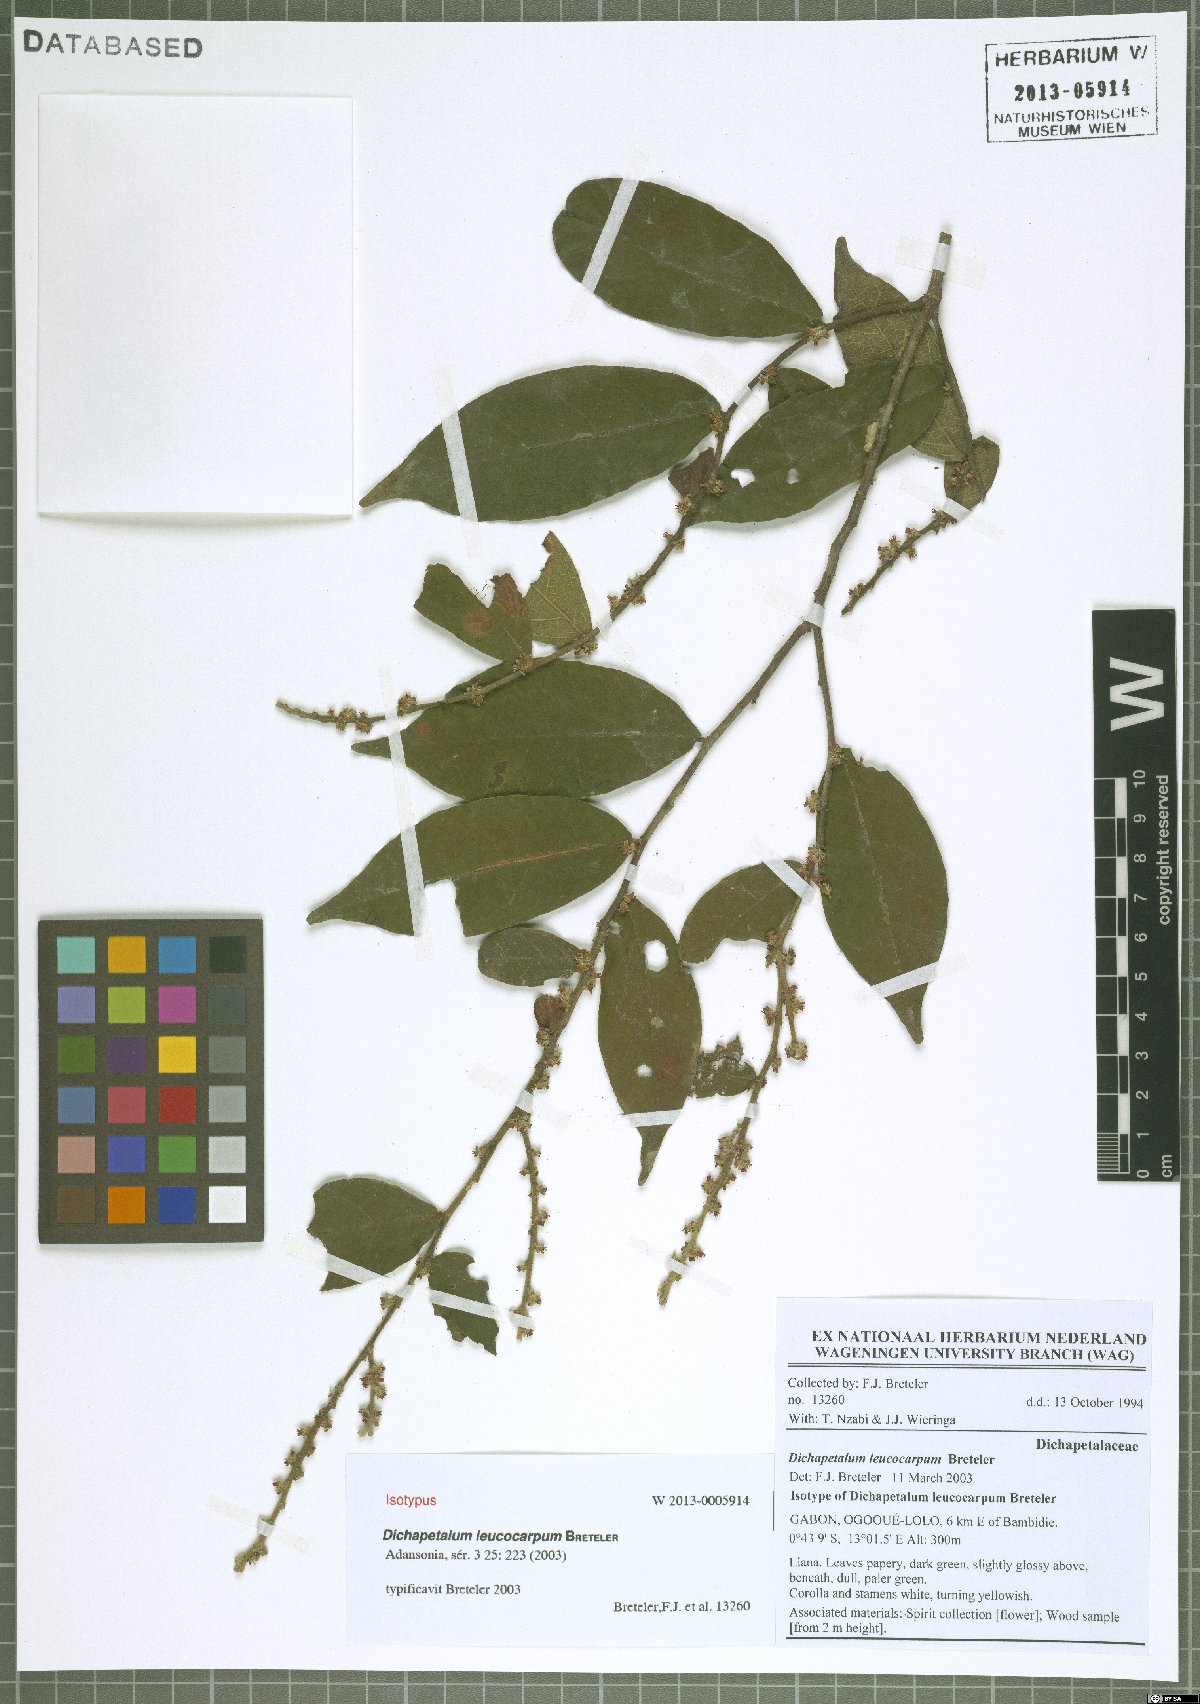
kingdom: Plantae
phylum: Tracheophyta
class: Magnoliopsida
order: Malpighiales
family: Dichapetalaceae
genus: Dichapetalum
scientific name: Dichapetalum leucocarpum
